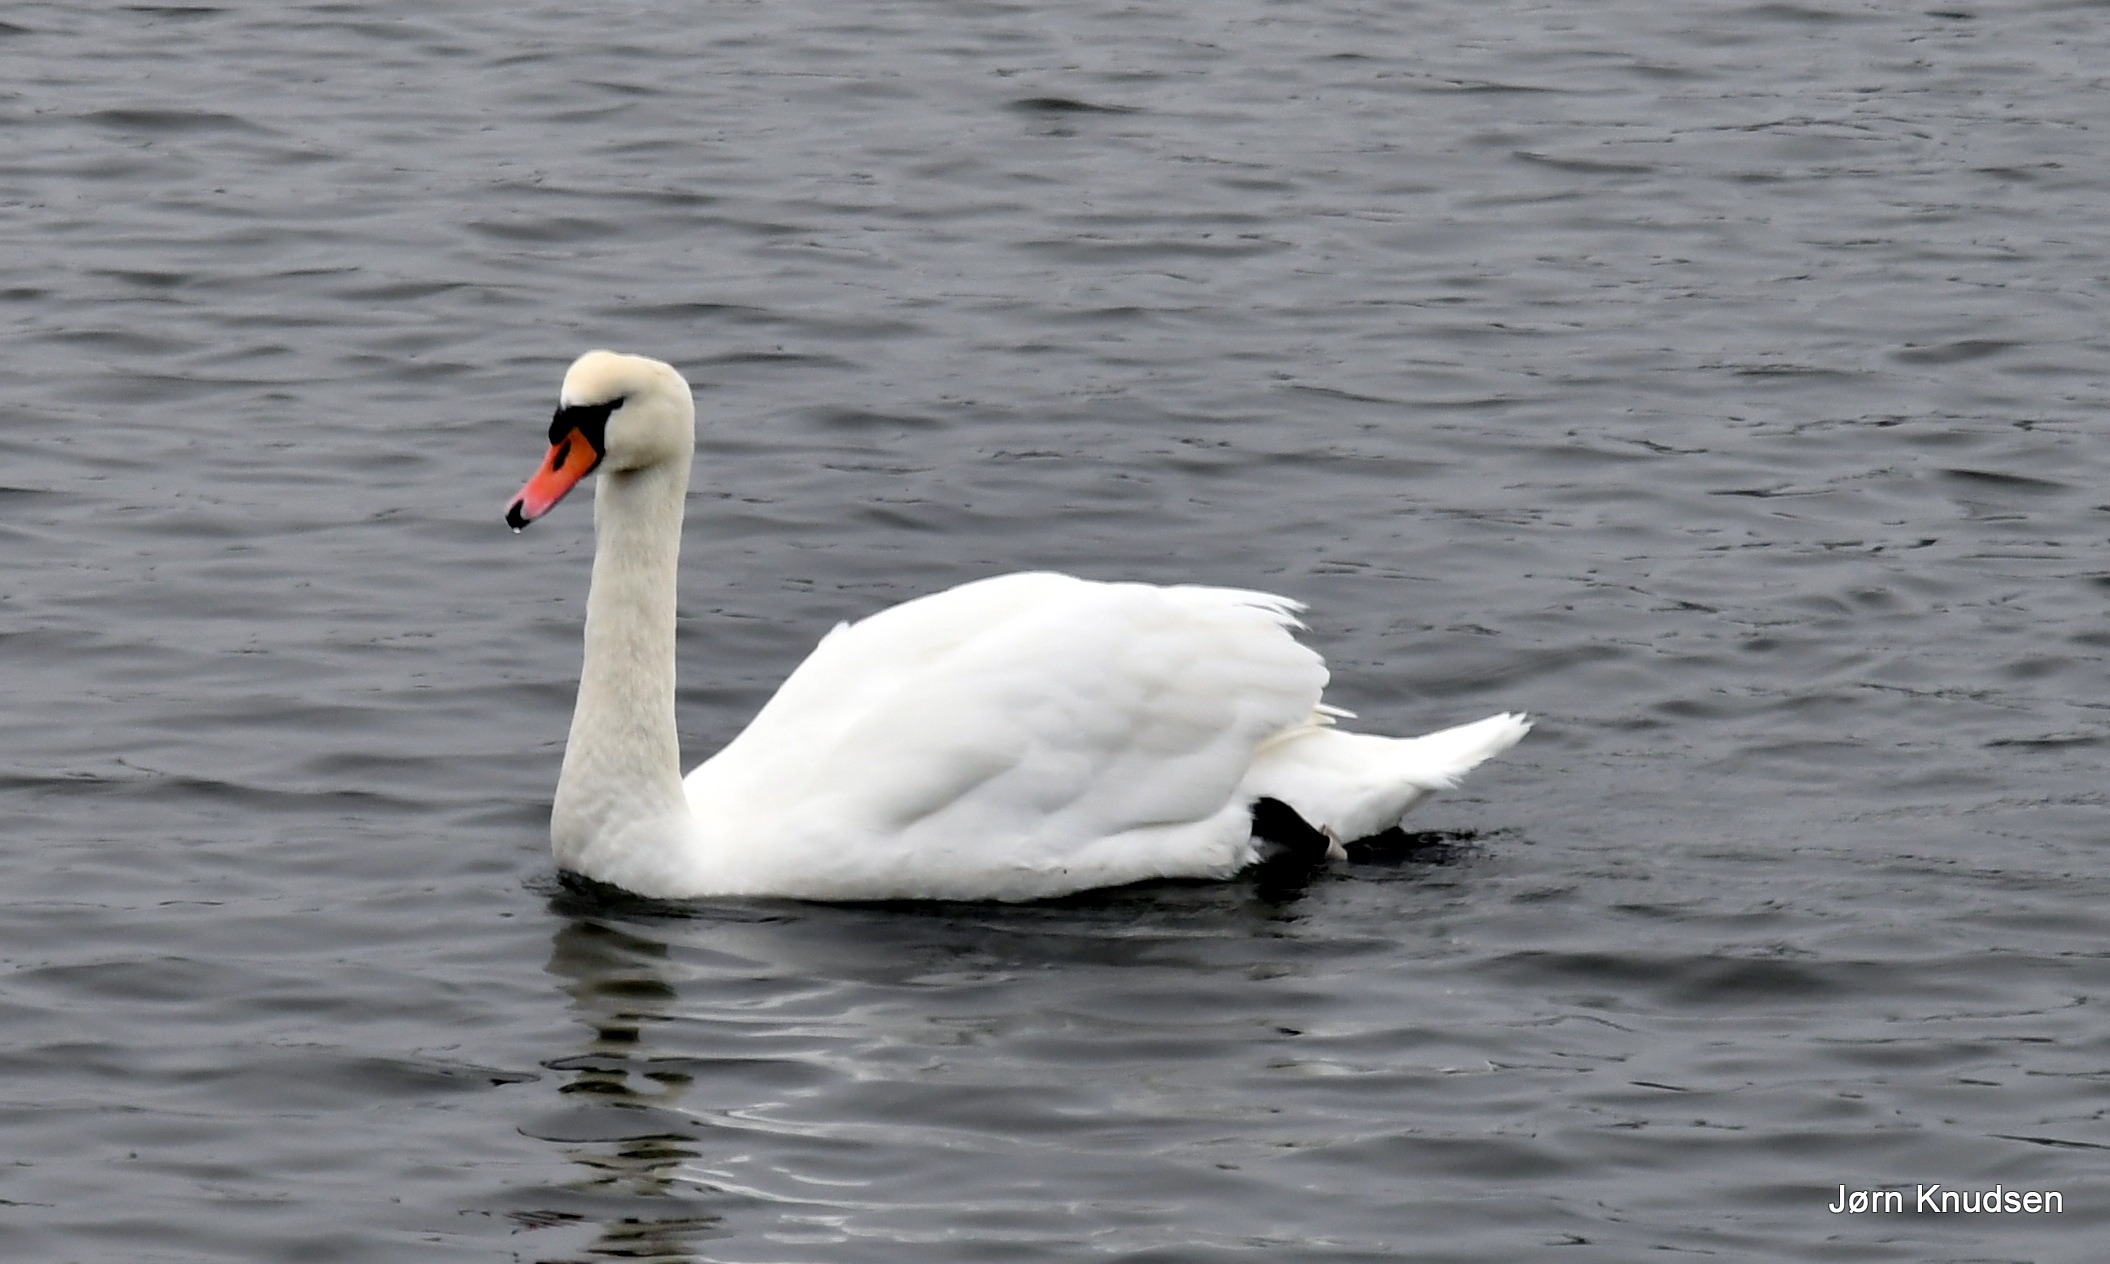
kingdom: Animalia
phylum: Chordata
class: Aves
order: Anseriformes
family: Anatidae
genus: Cygnus
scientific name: Cygnus olor
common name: Knopsvane
